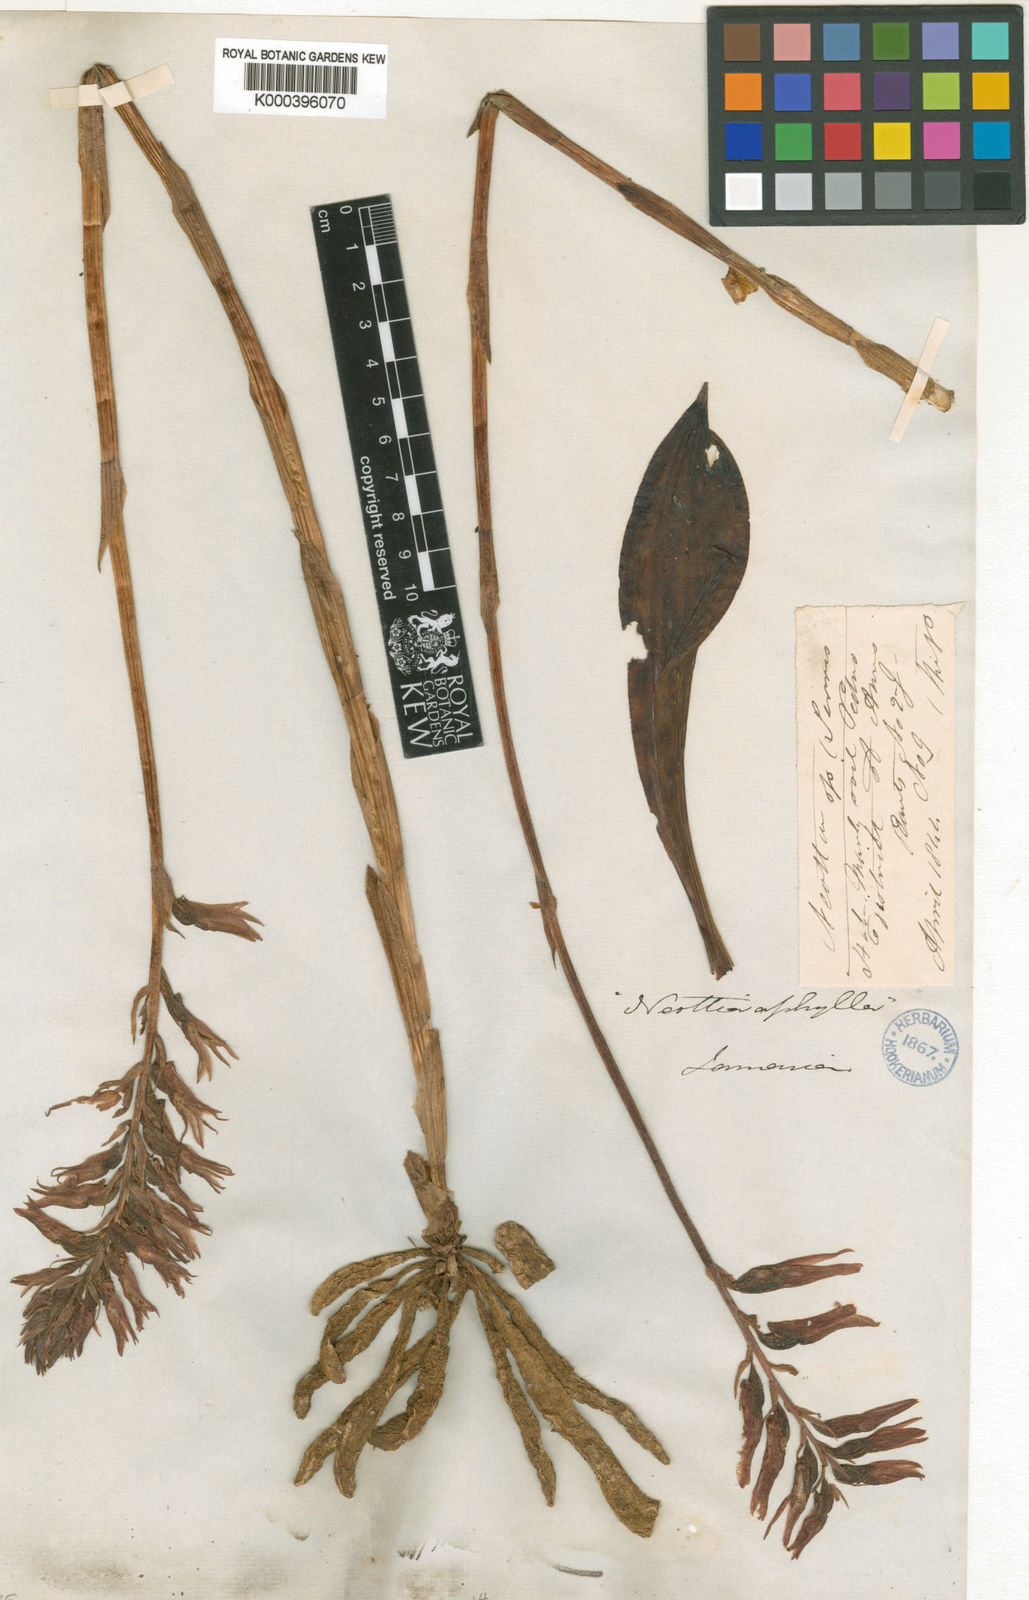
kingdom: Plantae
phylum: Tracheophyta
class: Liliopsida
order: Asparagales
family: Orchidaceae
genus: Sacoila
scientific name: Sacoila lanceolata
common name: Leafless beaked ladiestresses
